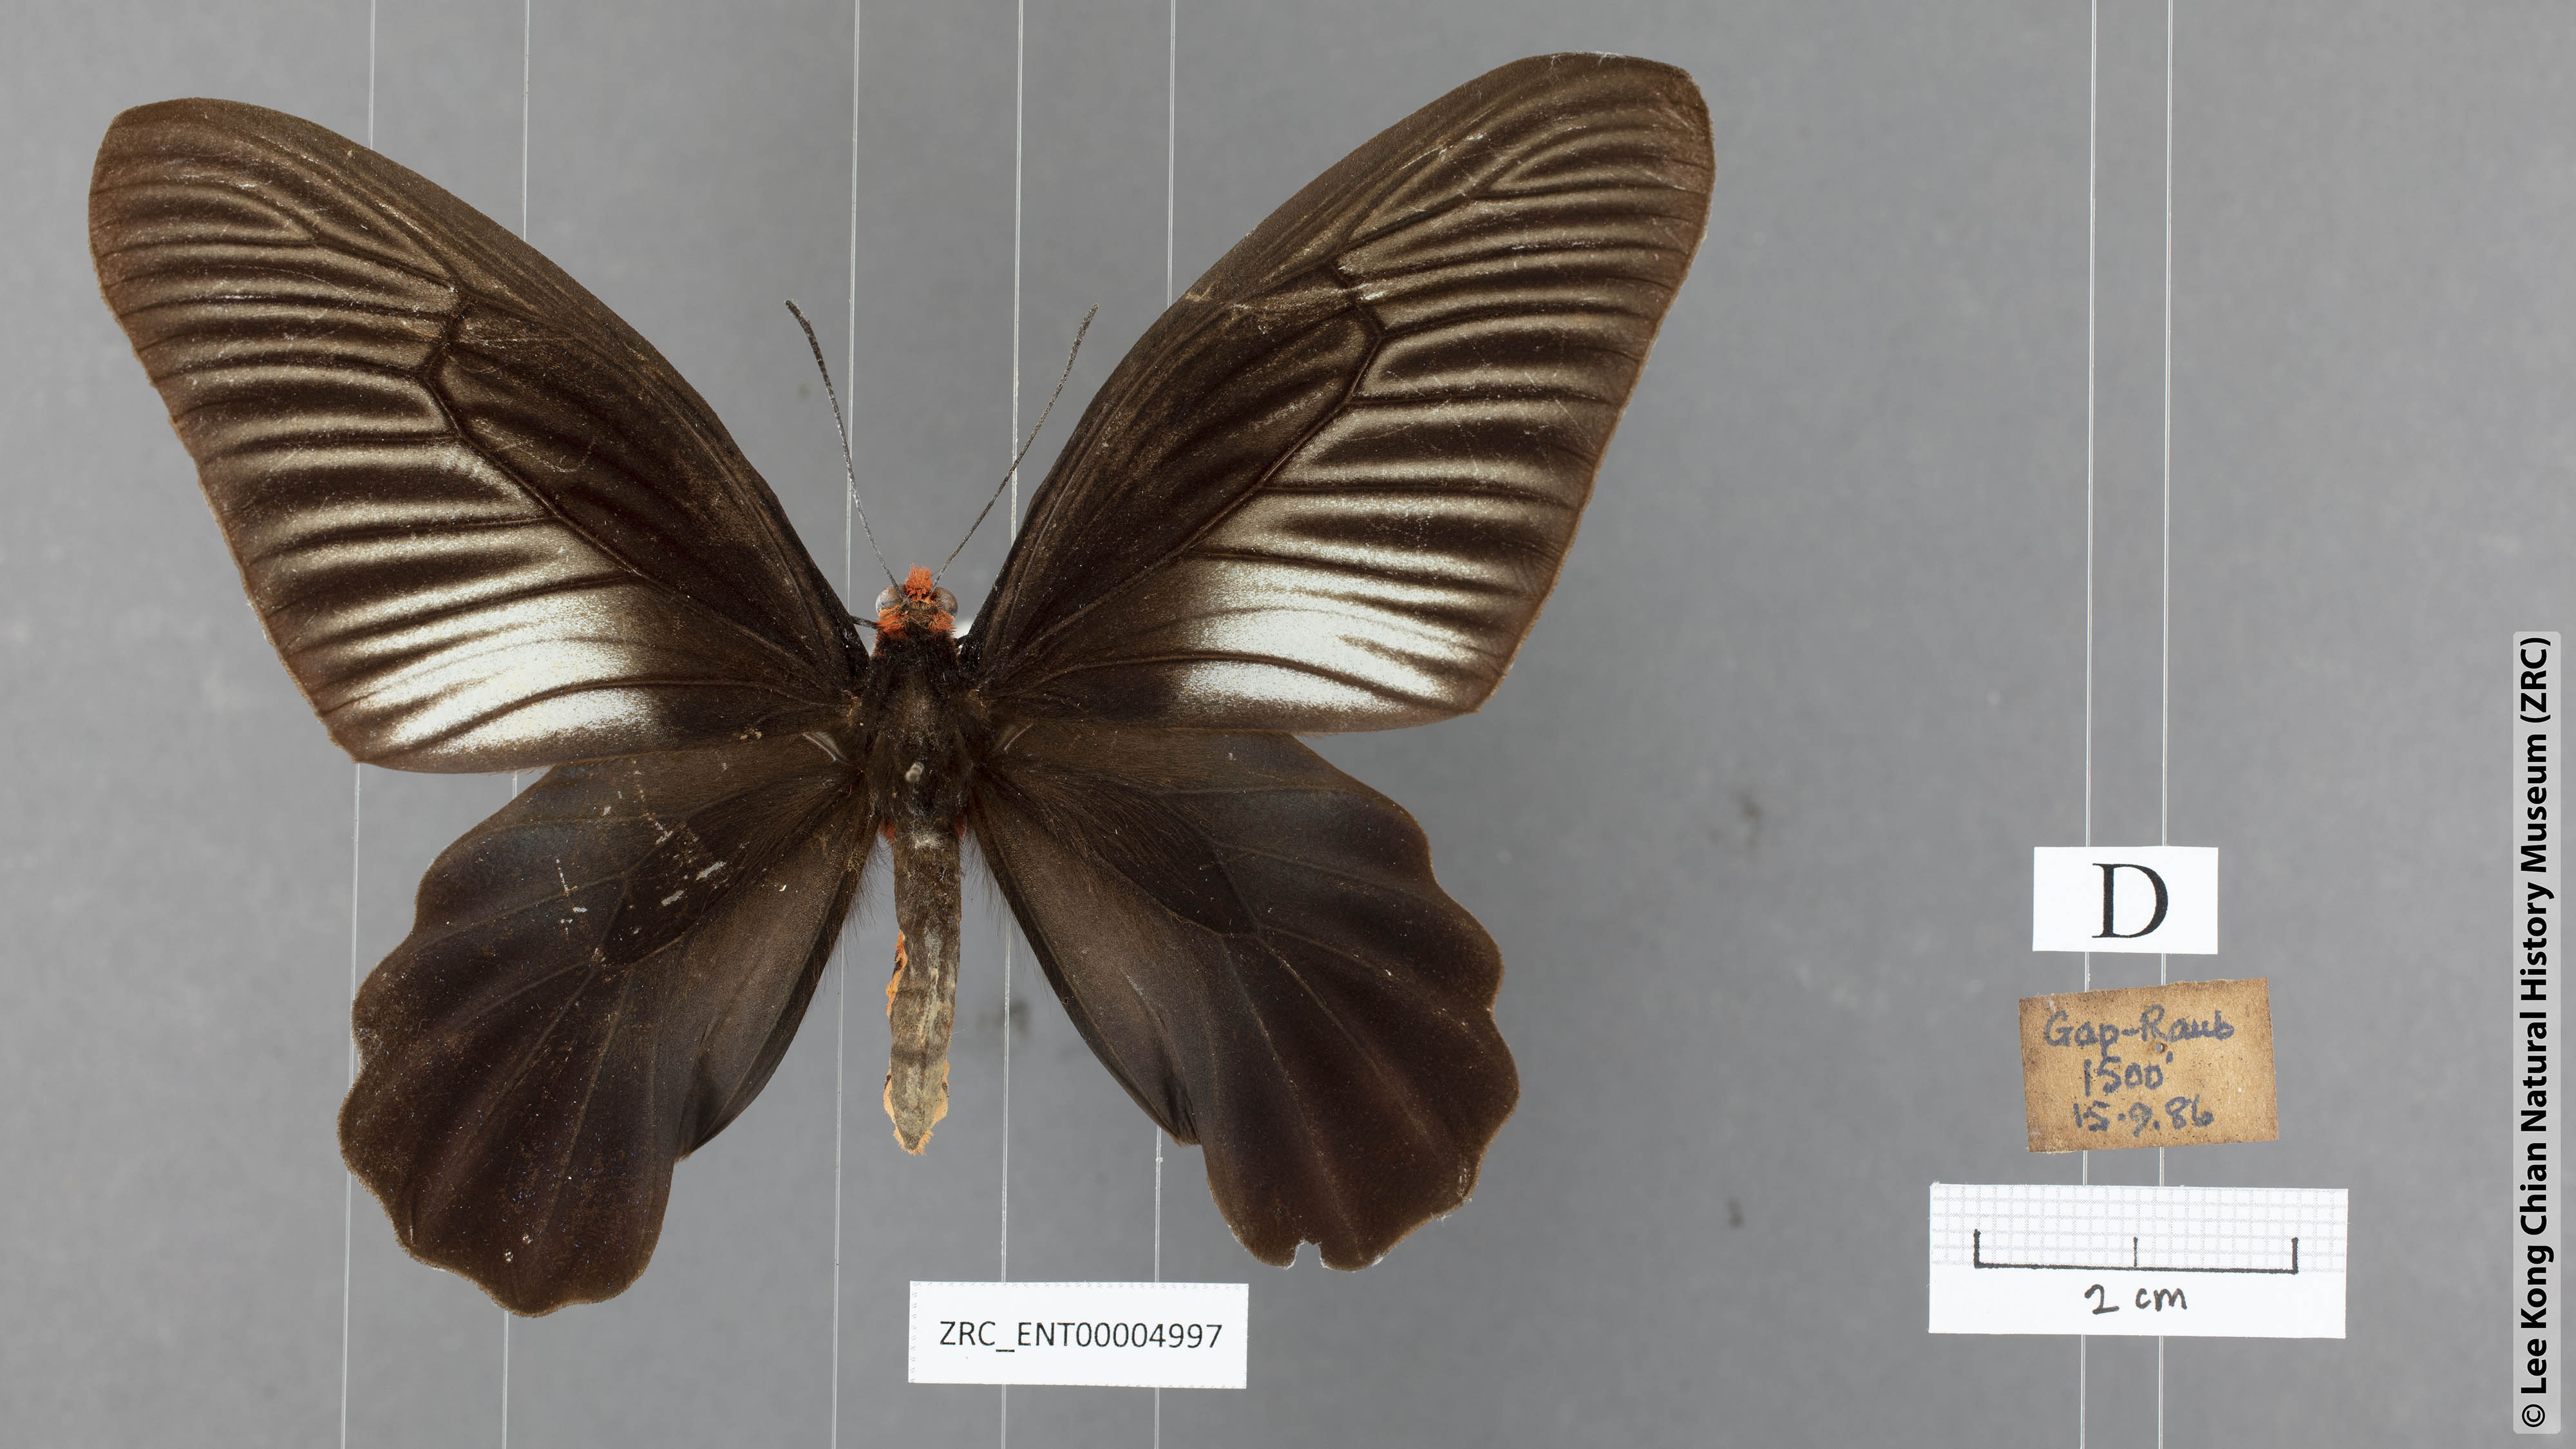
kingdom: Animalia
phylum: Arthropoda
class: Insecta
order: Lepidoptera
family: Papilionidae
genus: Atrophaneura
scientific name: Atrophaneura varuna
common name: Common batwing
